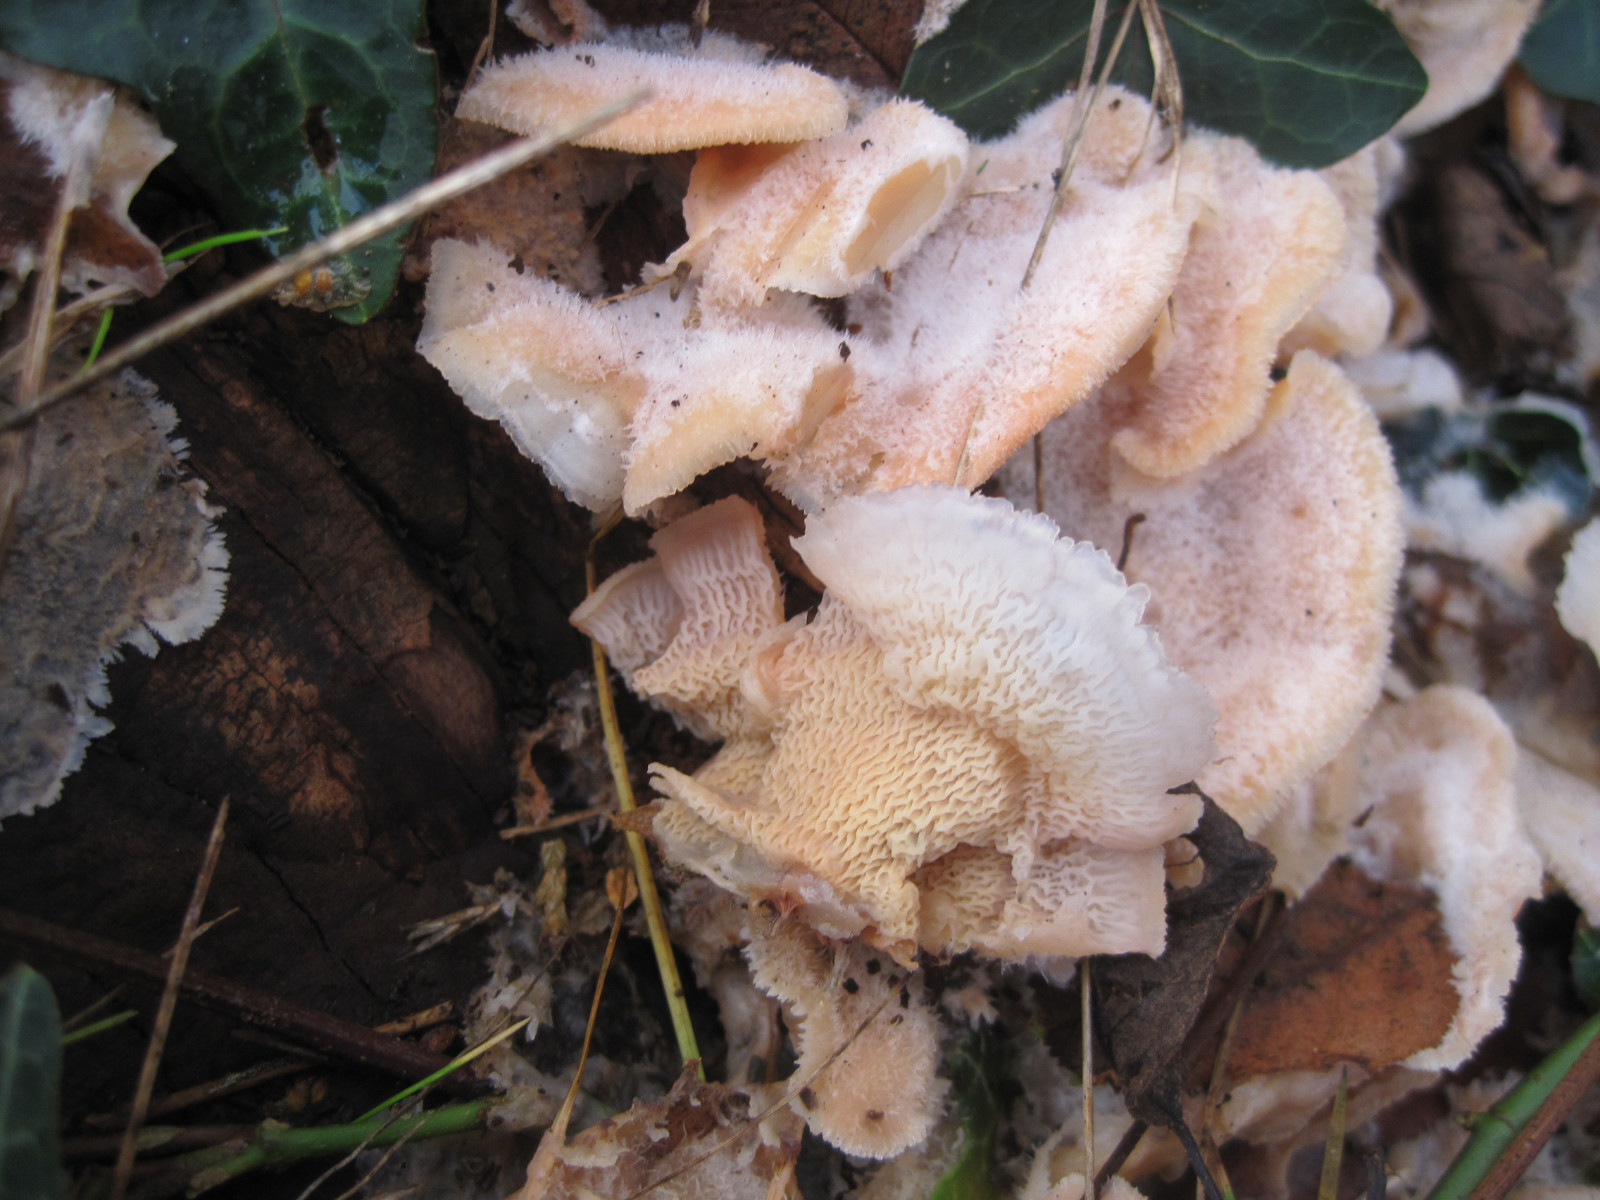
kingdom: Fungi
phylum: Basidiomycota
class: Agaricomycetes
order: Polyporales
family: Meruliaceae
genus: Phlebia
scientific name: Phlebia tremellosa
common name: bævrende åresvamp
